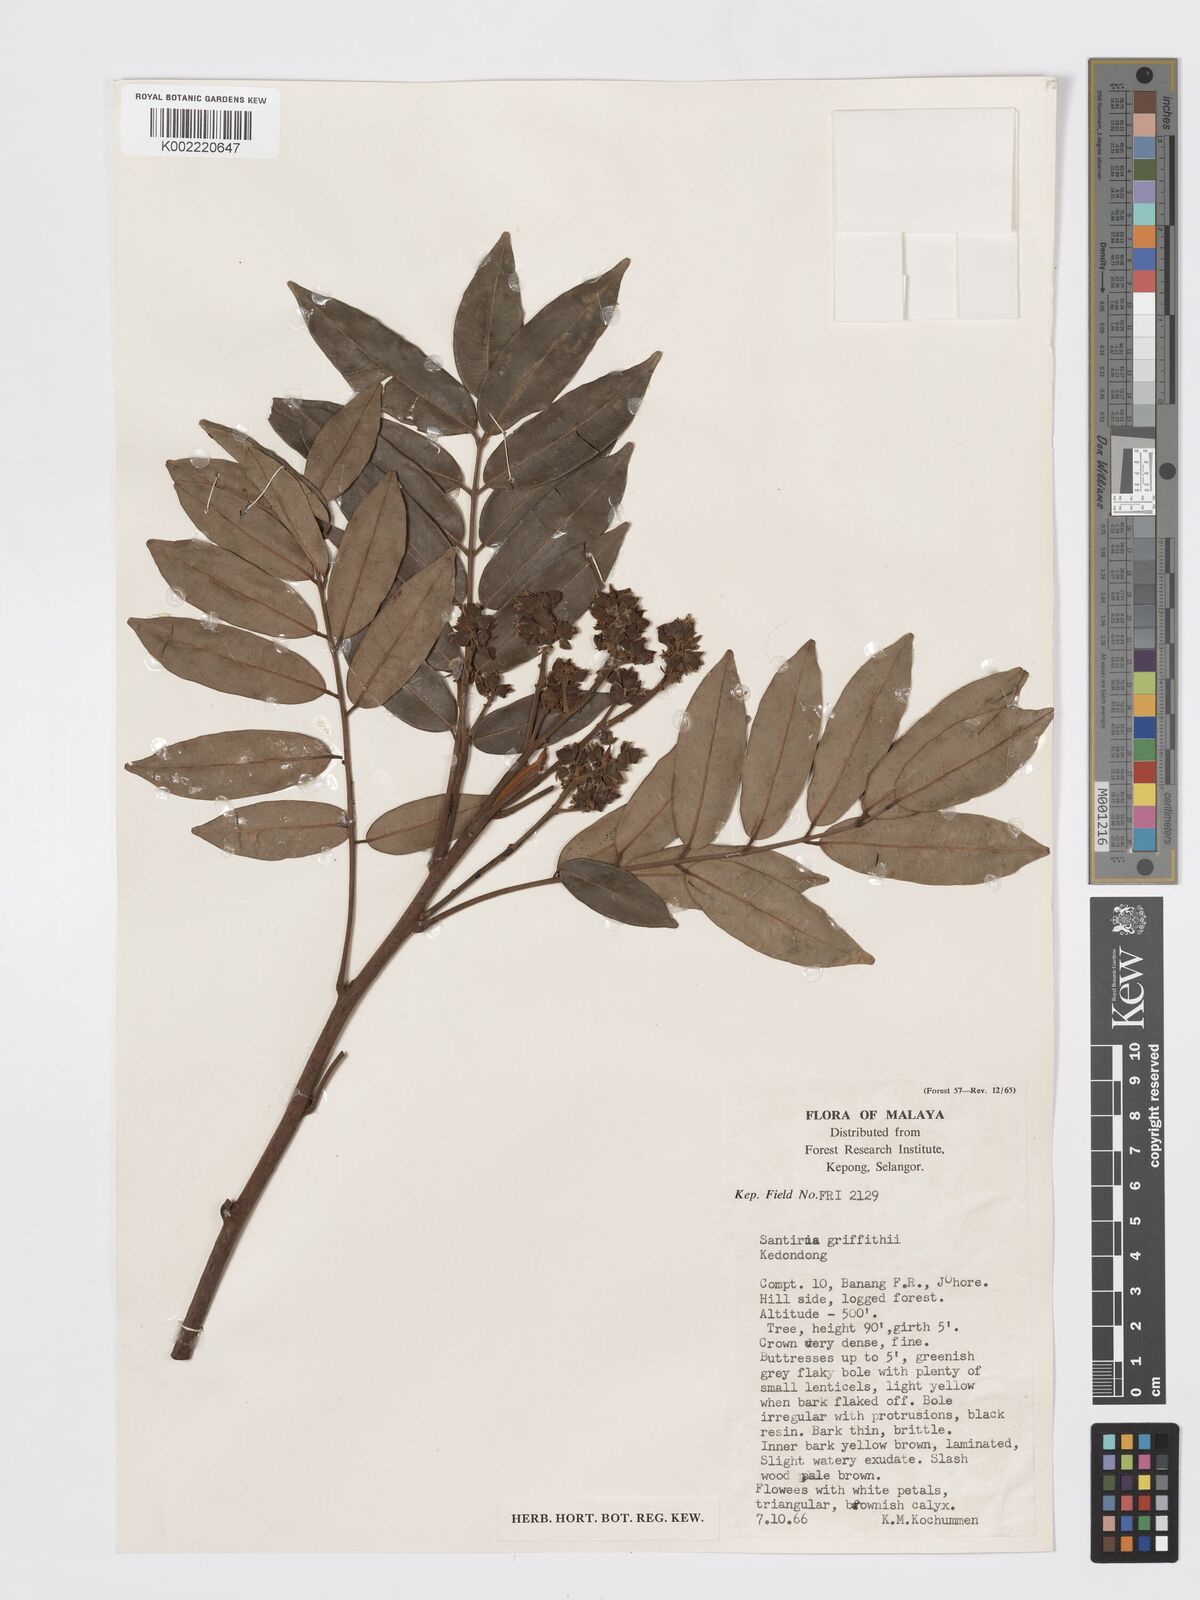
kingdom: Plantae
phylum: Tracheophyta
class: Magnoliopsida
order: Sapindales
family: Burseraceae
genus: Santiria
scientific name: Santiria griffithii
